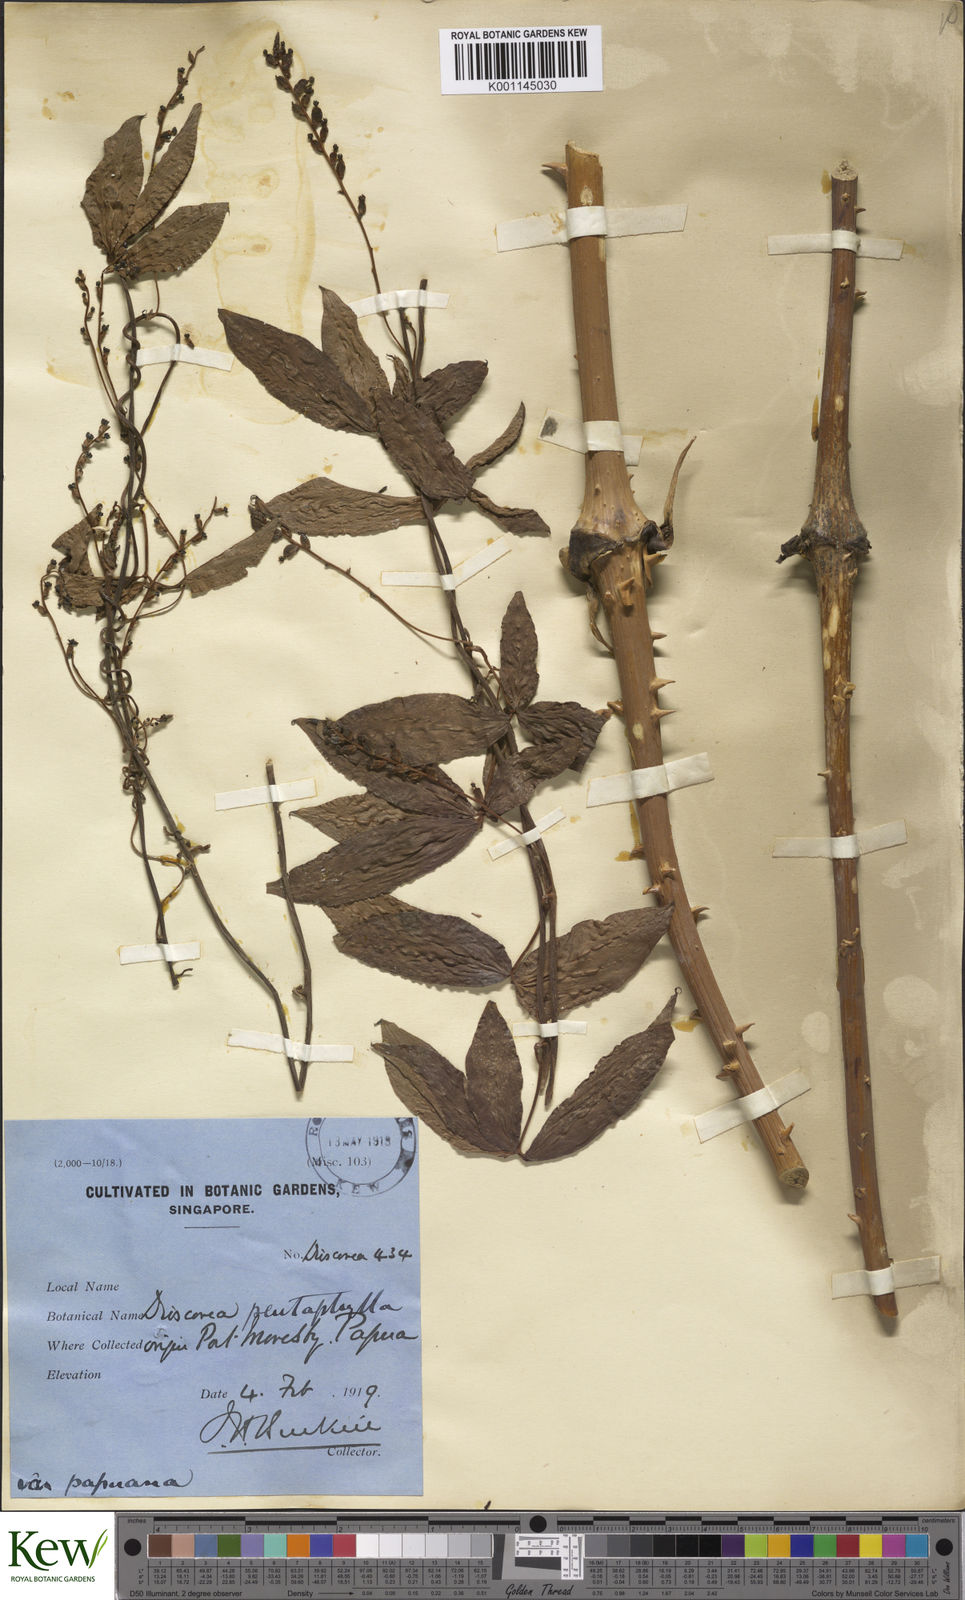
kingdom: Plantae
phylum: Tracheophyta
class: Liliopsida
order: Dioscoreales
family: Dioscoreaceae
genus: Dioscorea
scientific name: Dioscorea pentaphylla
